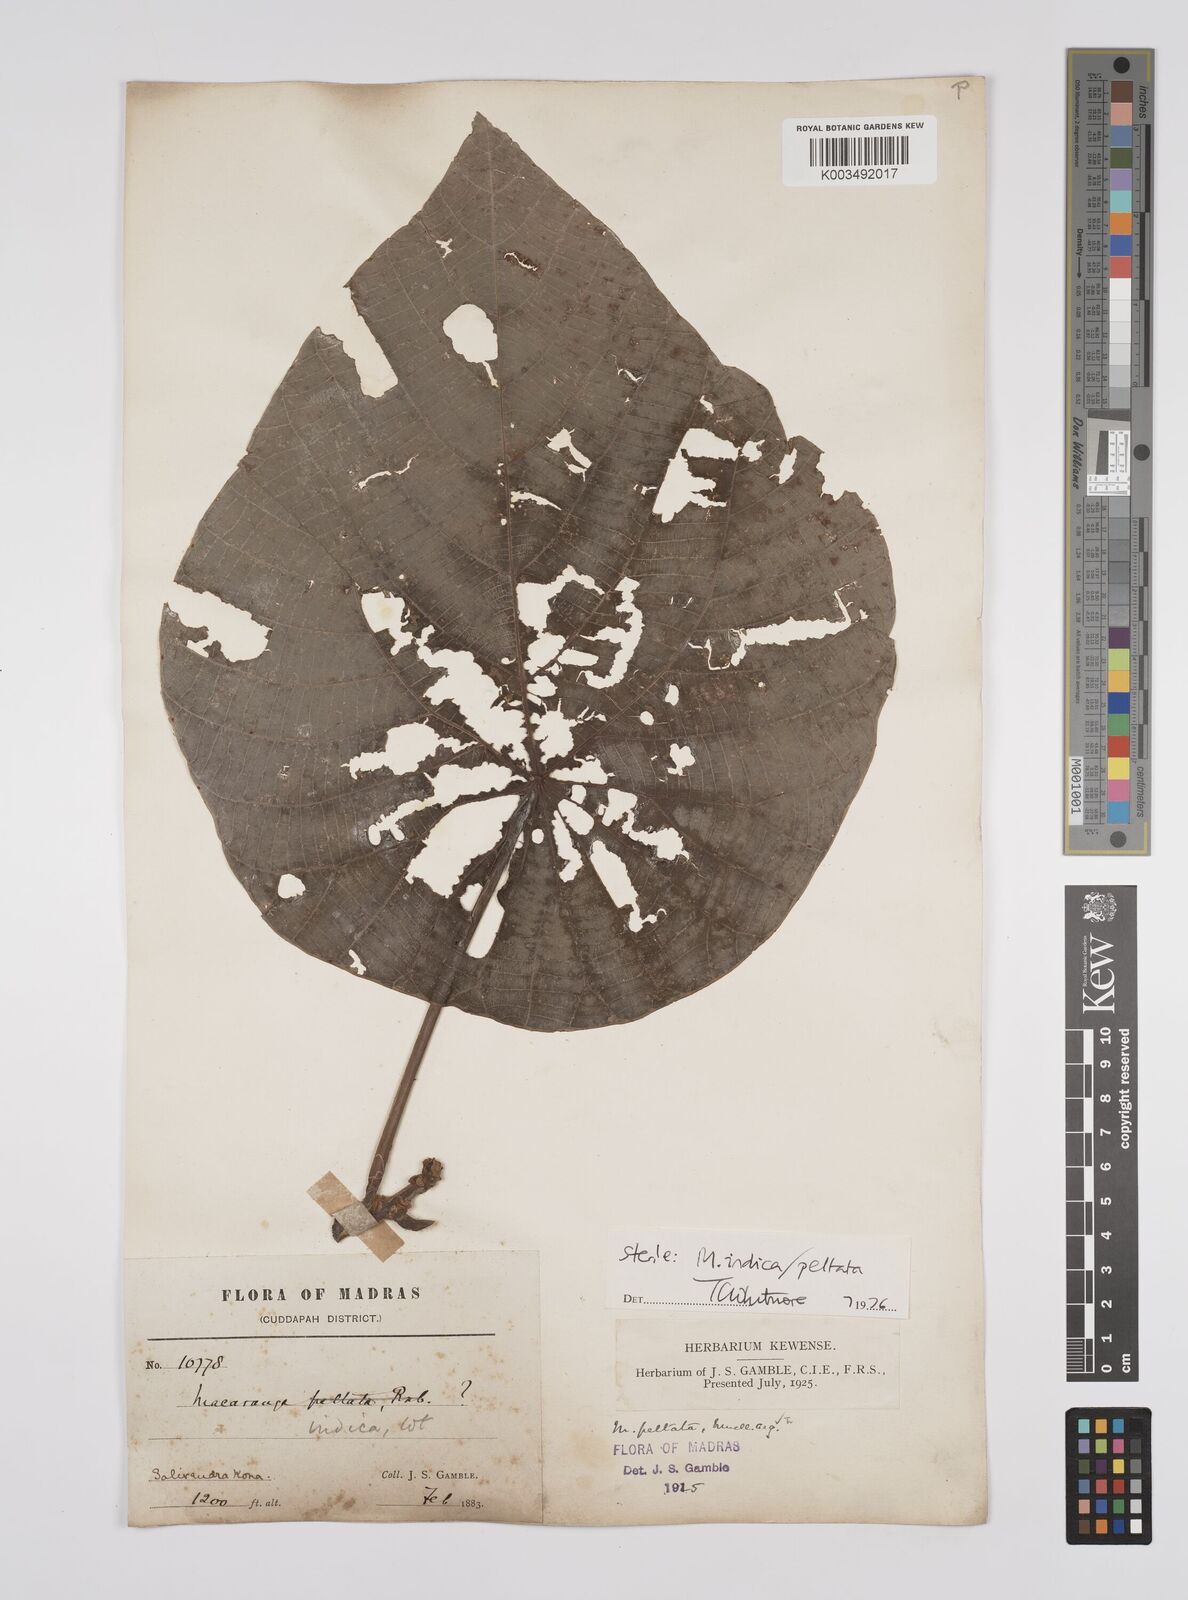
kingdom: Plantae
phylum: Tracheophyta
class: Magnoliopsida
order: Malpighiales
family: Euphorbiaceae
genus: Macaranga
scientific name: Macaranga indica
